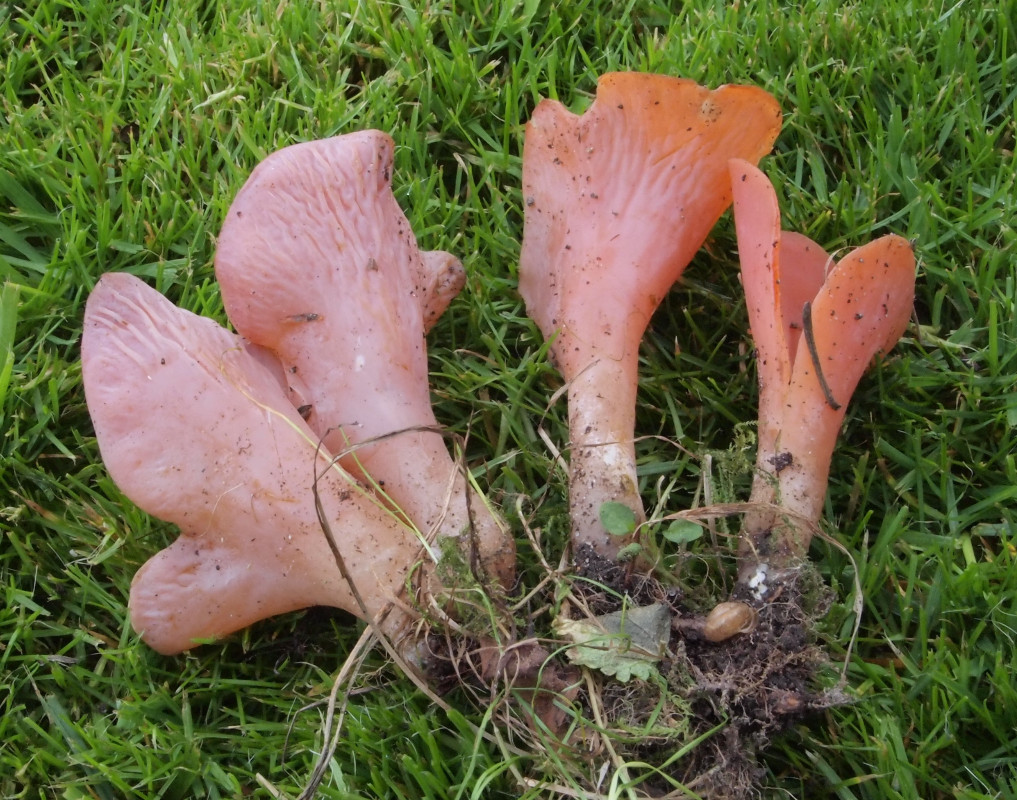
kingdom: Fungi
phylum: Basidiomycota
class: Agaricomycetes
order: Auriculariales
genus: Guepinia
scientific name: Guepinia helvelloides
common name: bævretunge
